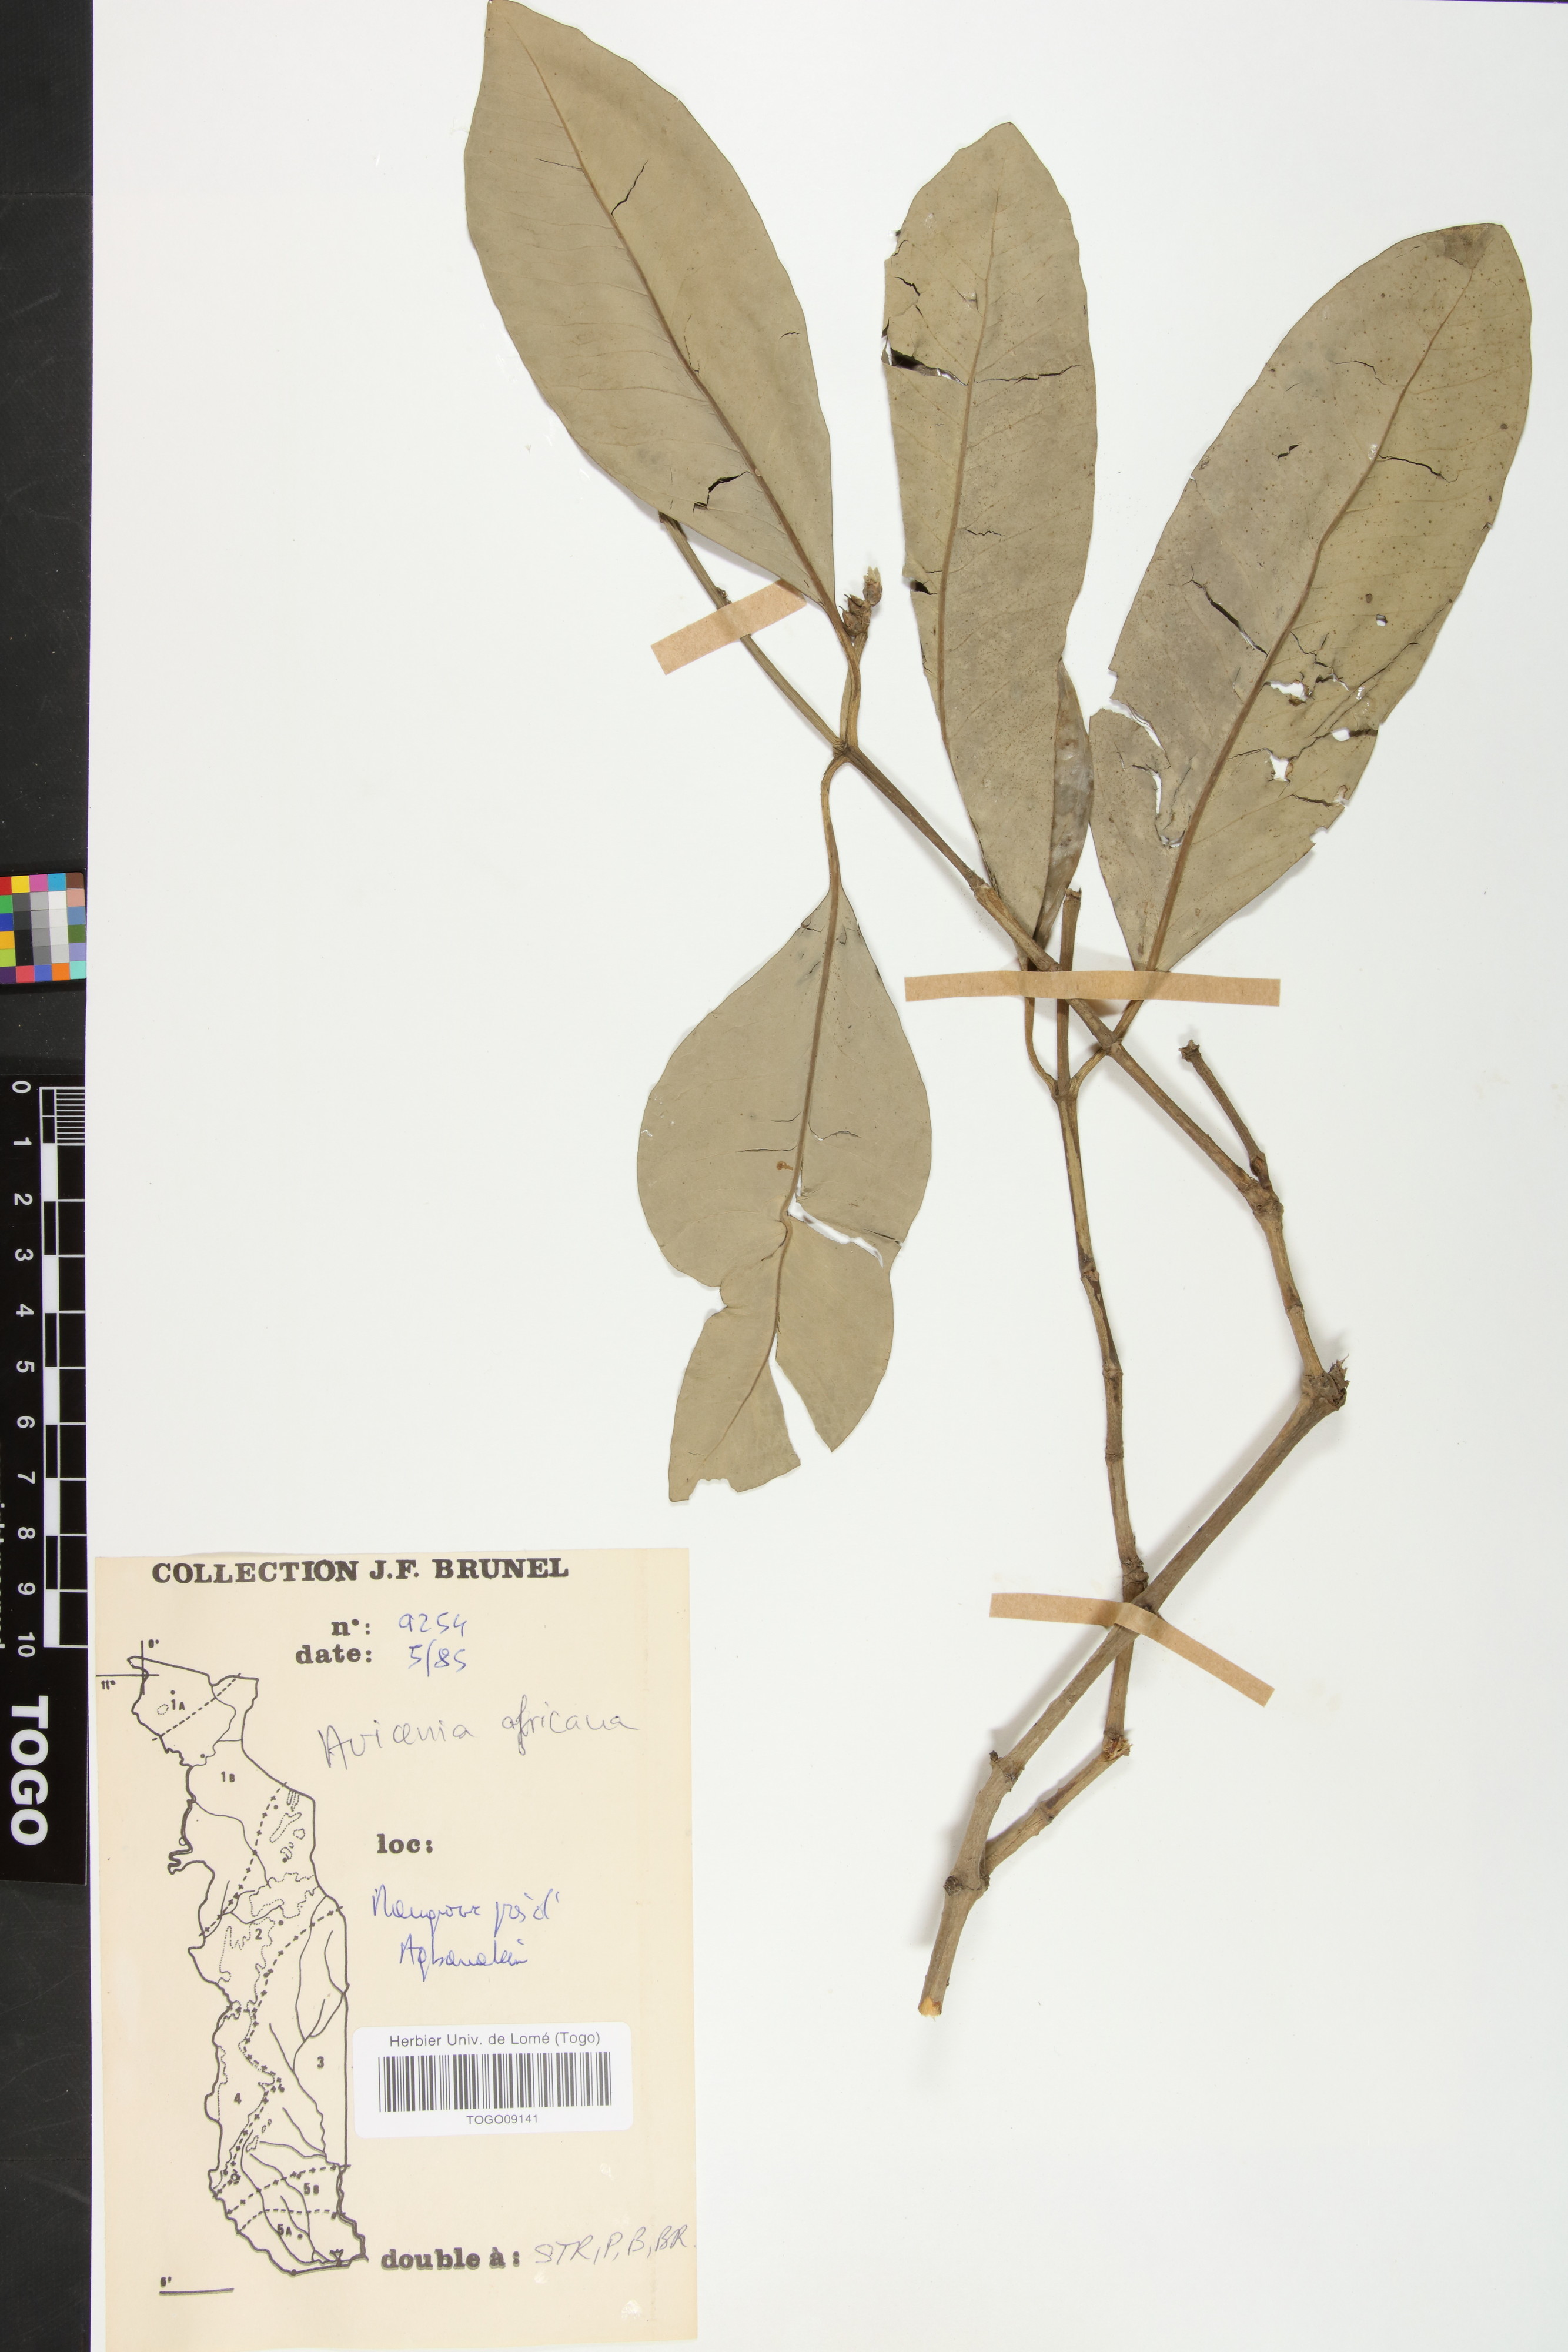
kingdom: Plantae
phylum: Tracheophyta
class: Magnoliopsida
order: Lamiales
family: Acanthaceae
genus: Avicennia
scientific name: Avicennia germinans
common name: Black mangrove
